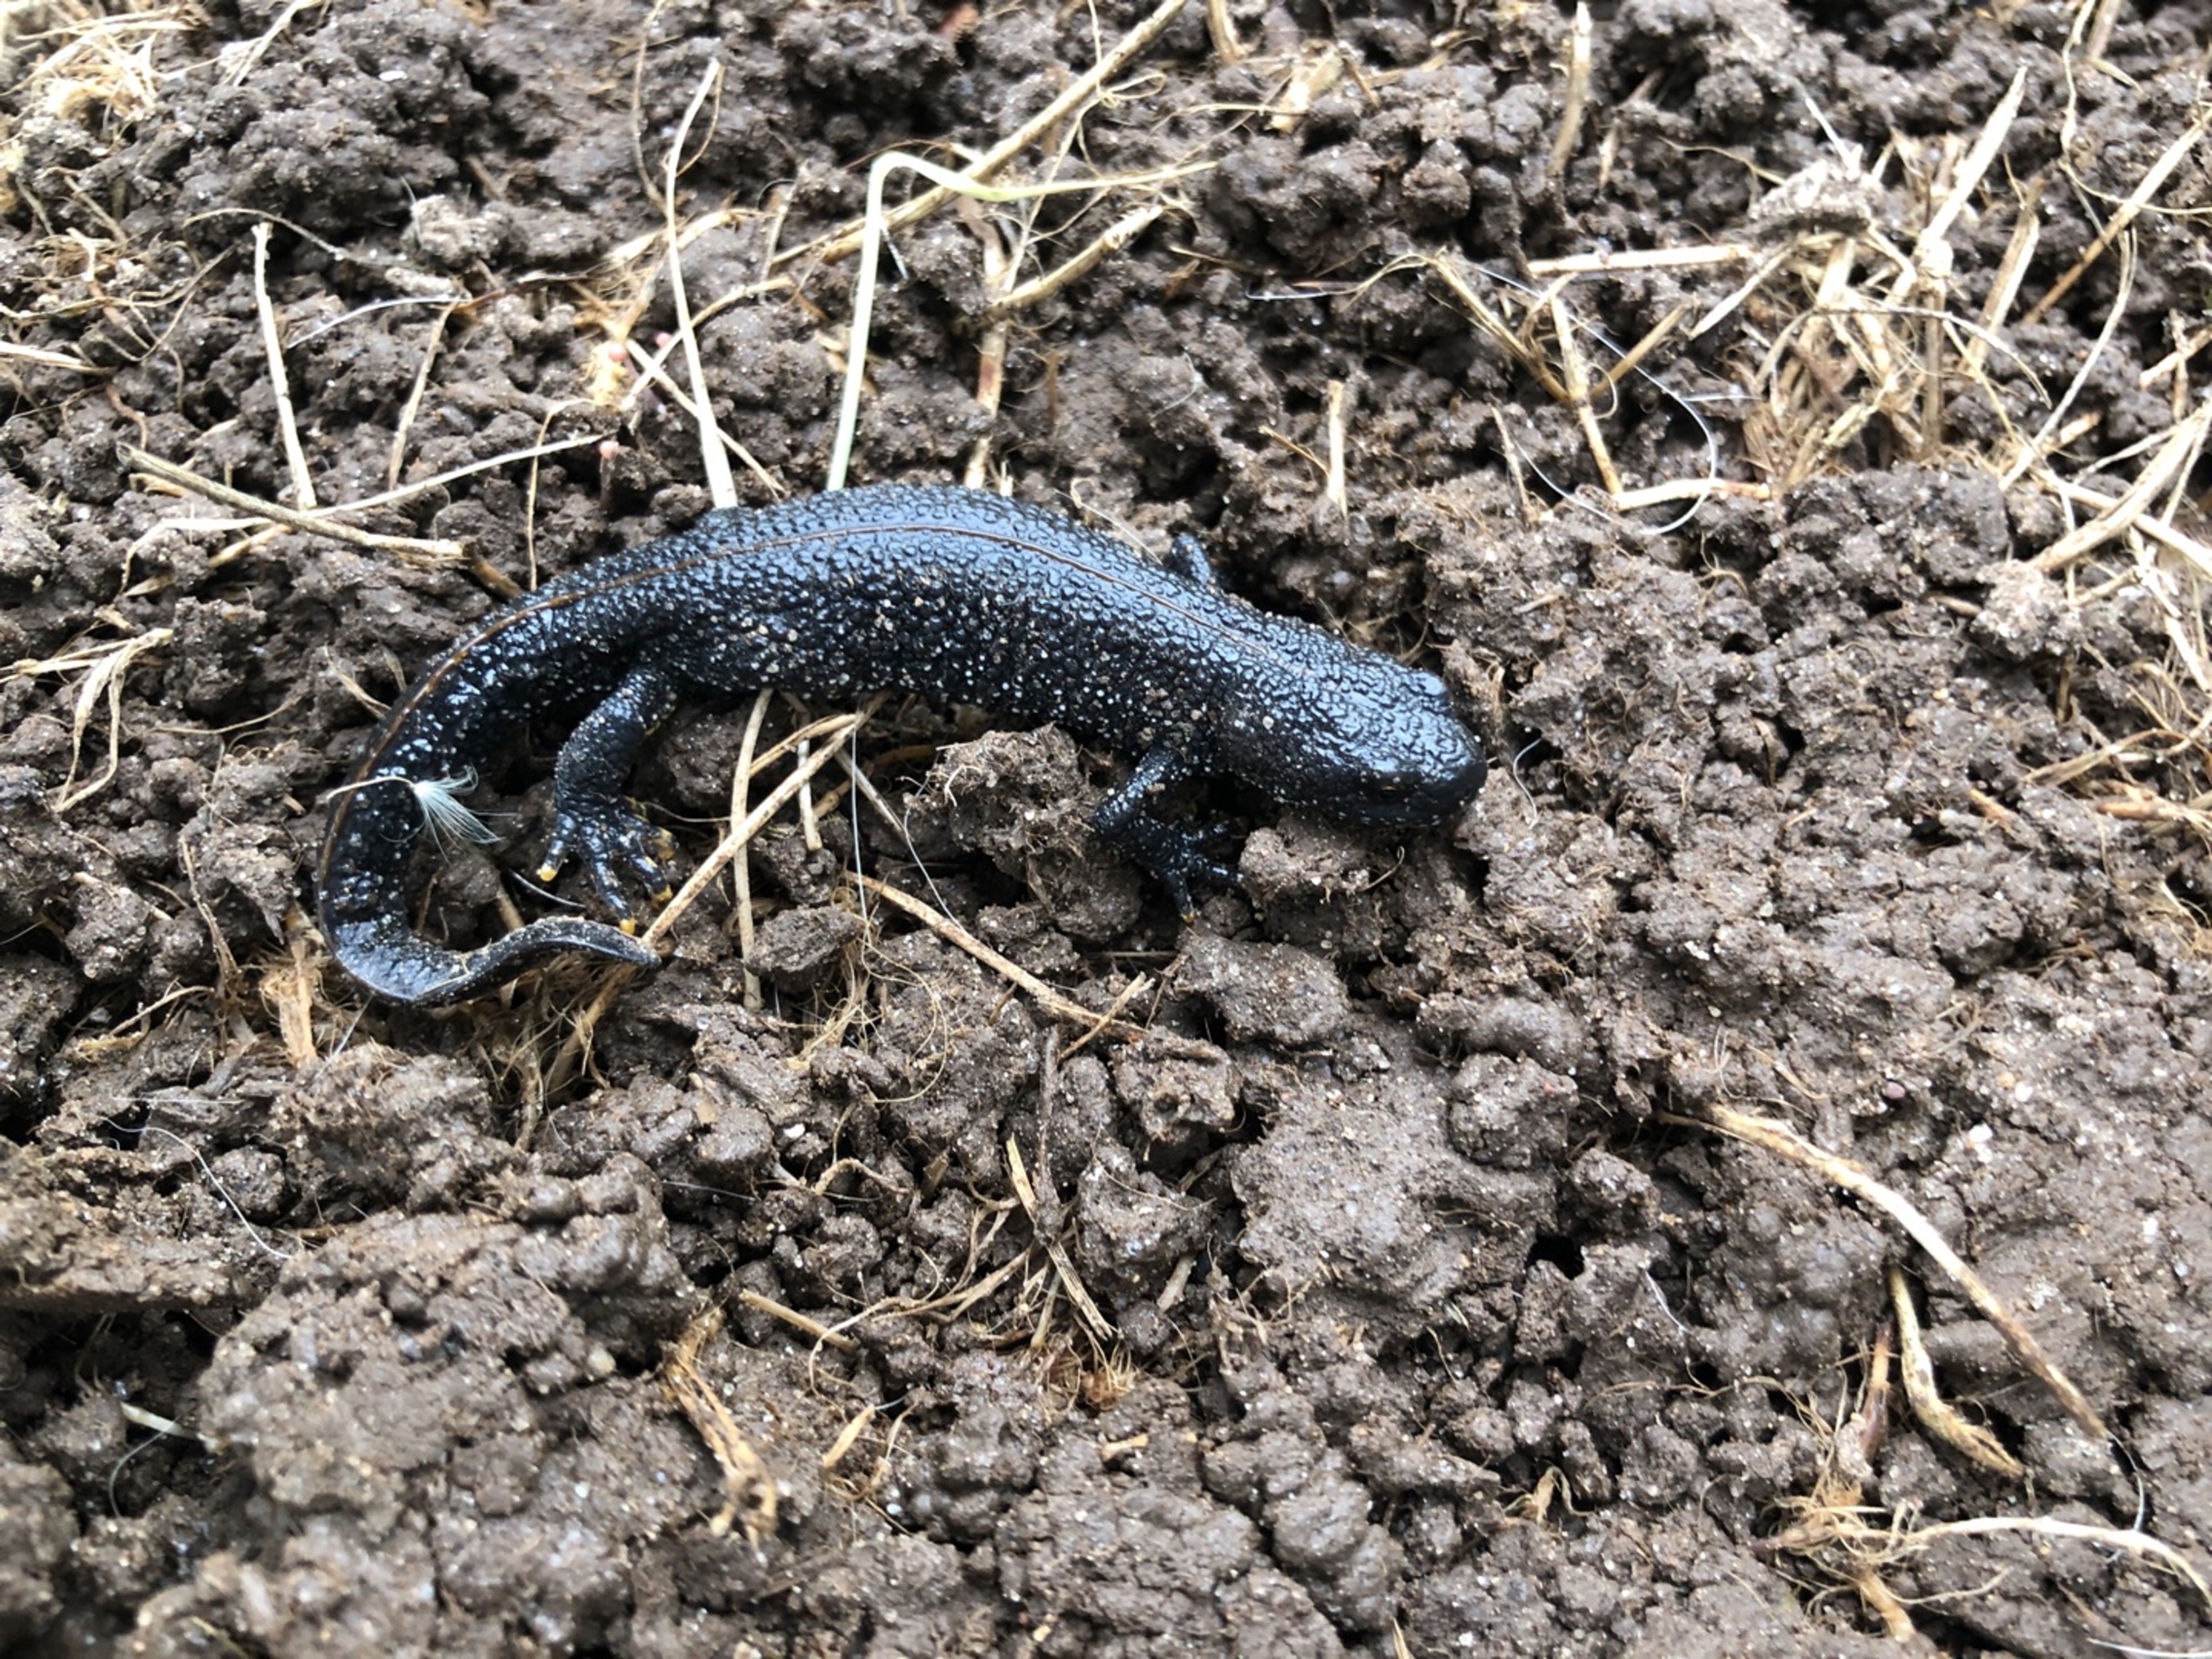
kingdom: Animalia
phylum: Chordata
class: Amphibia
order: Caudata
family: Salamandridae
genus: Triturus
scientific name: Triturus cristatus
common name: Stor vandsalamander
